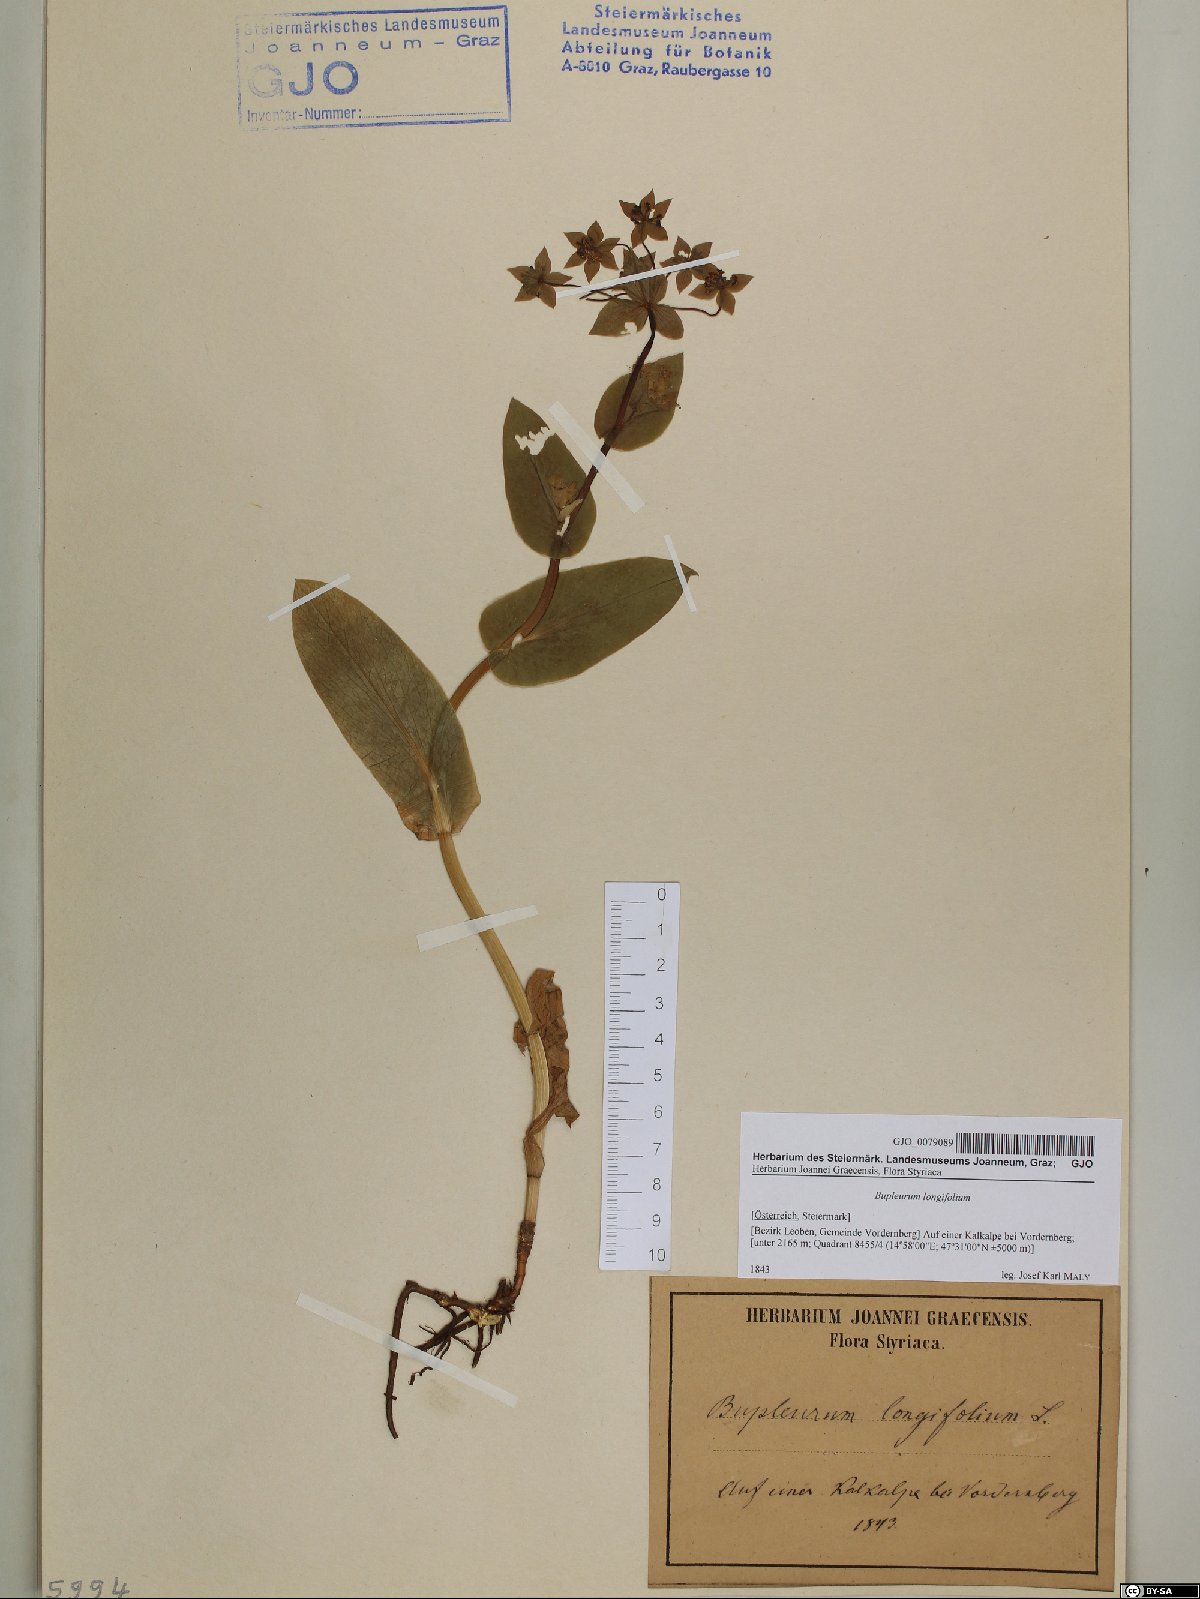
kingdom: Plantae
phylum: Tracheophyta
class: Magnoliopsida
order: Apiales
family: Apiaceae
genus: Bupleurum
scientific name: Bupleurum longifolium
